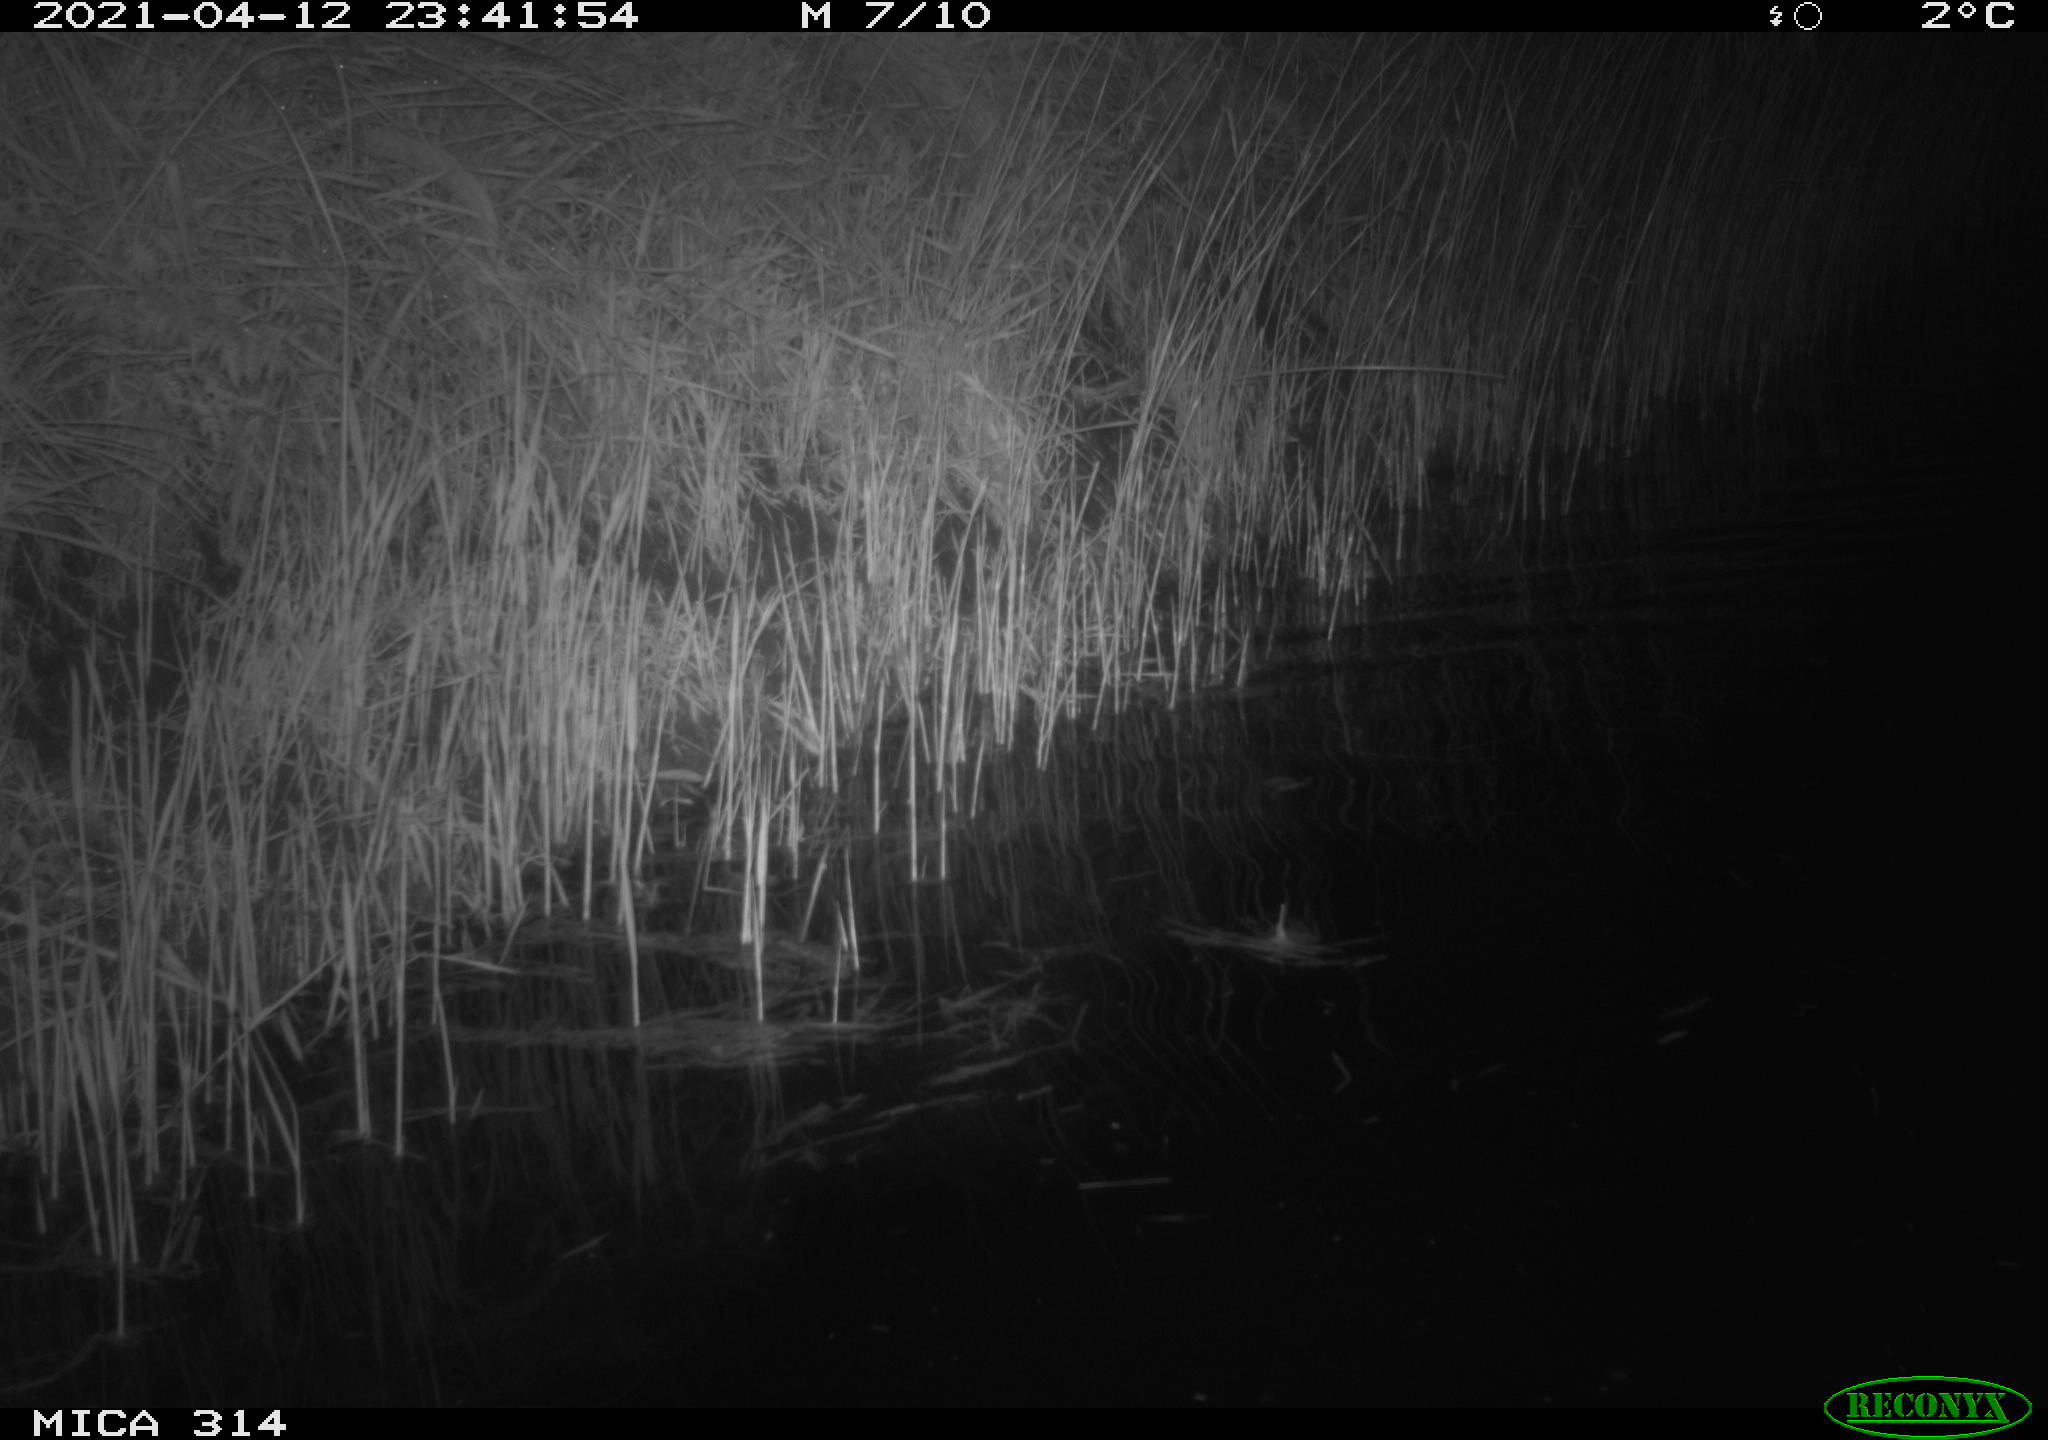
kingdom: Animalia
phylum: Chordata
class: Aves
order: Anseriformes
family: Anatidae
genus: Anas
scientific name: Anas platyrhynchos
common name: Mallard
